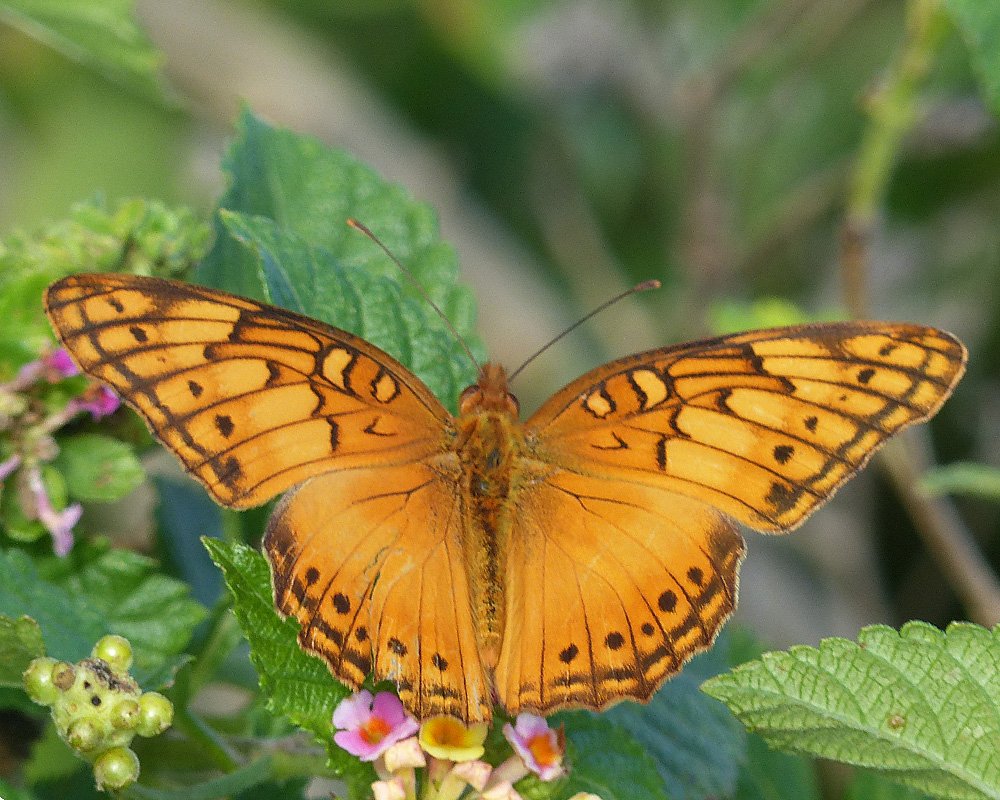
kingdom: Animalia
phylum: Arthropoda
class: Insecta
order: Lepidoptera
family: Nymphalidae
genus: Euptoieta
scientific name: Euptoieta hegesia
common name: Mexican Fritillary
